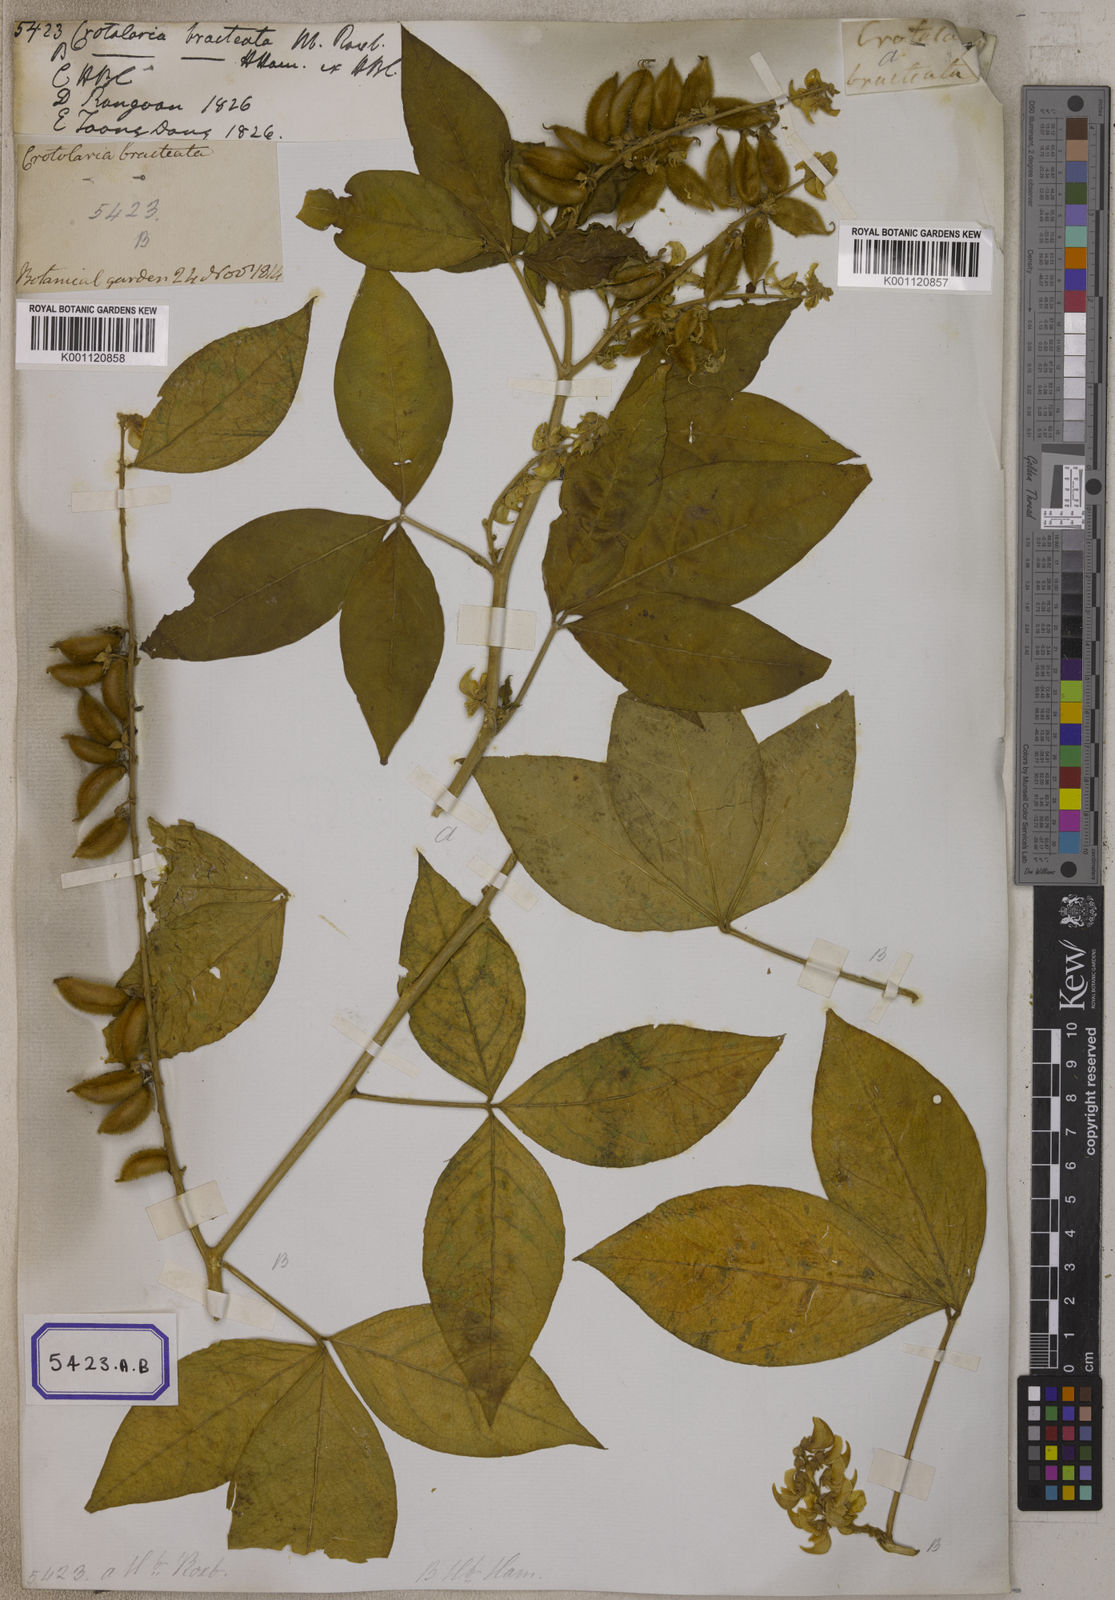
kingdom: Plantae
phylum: Tracheophyta
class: Magnoliopsida
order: Fabales
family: Fabaceae
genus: Crotalaria
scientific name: Crotalaria
